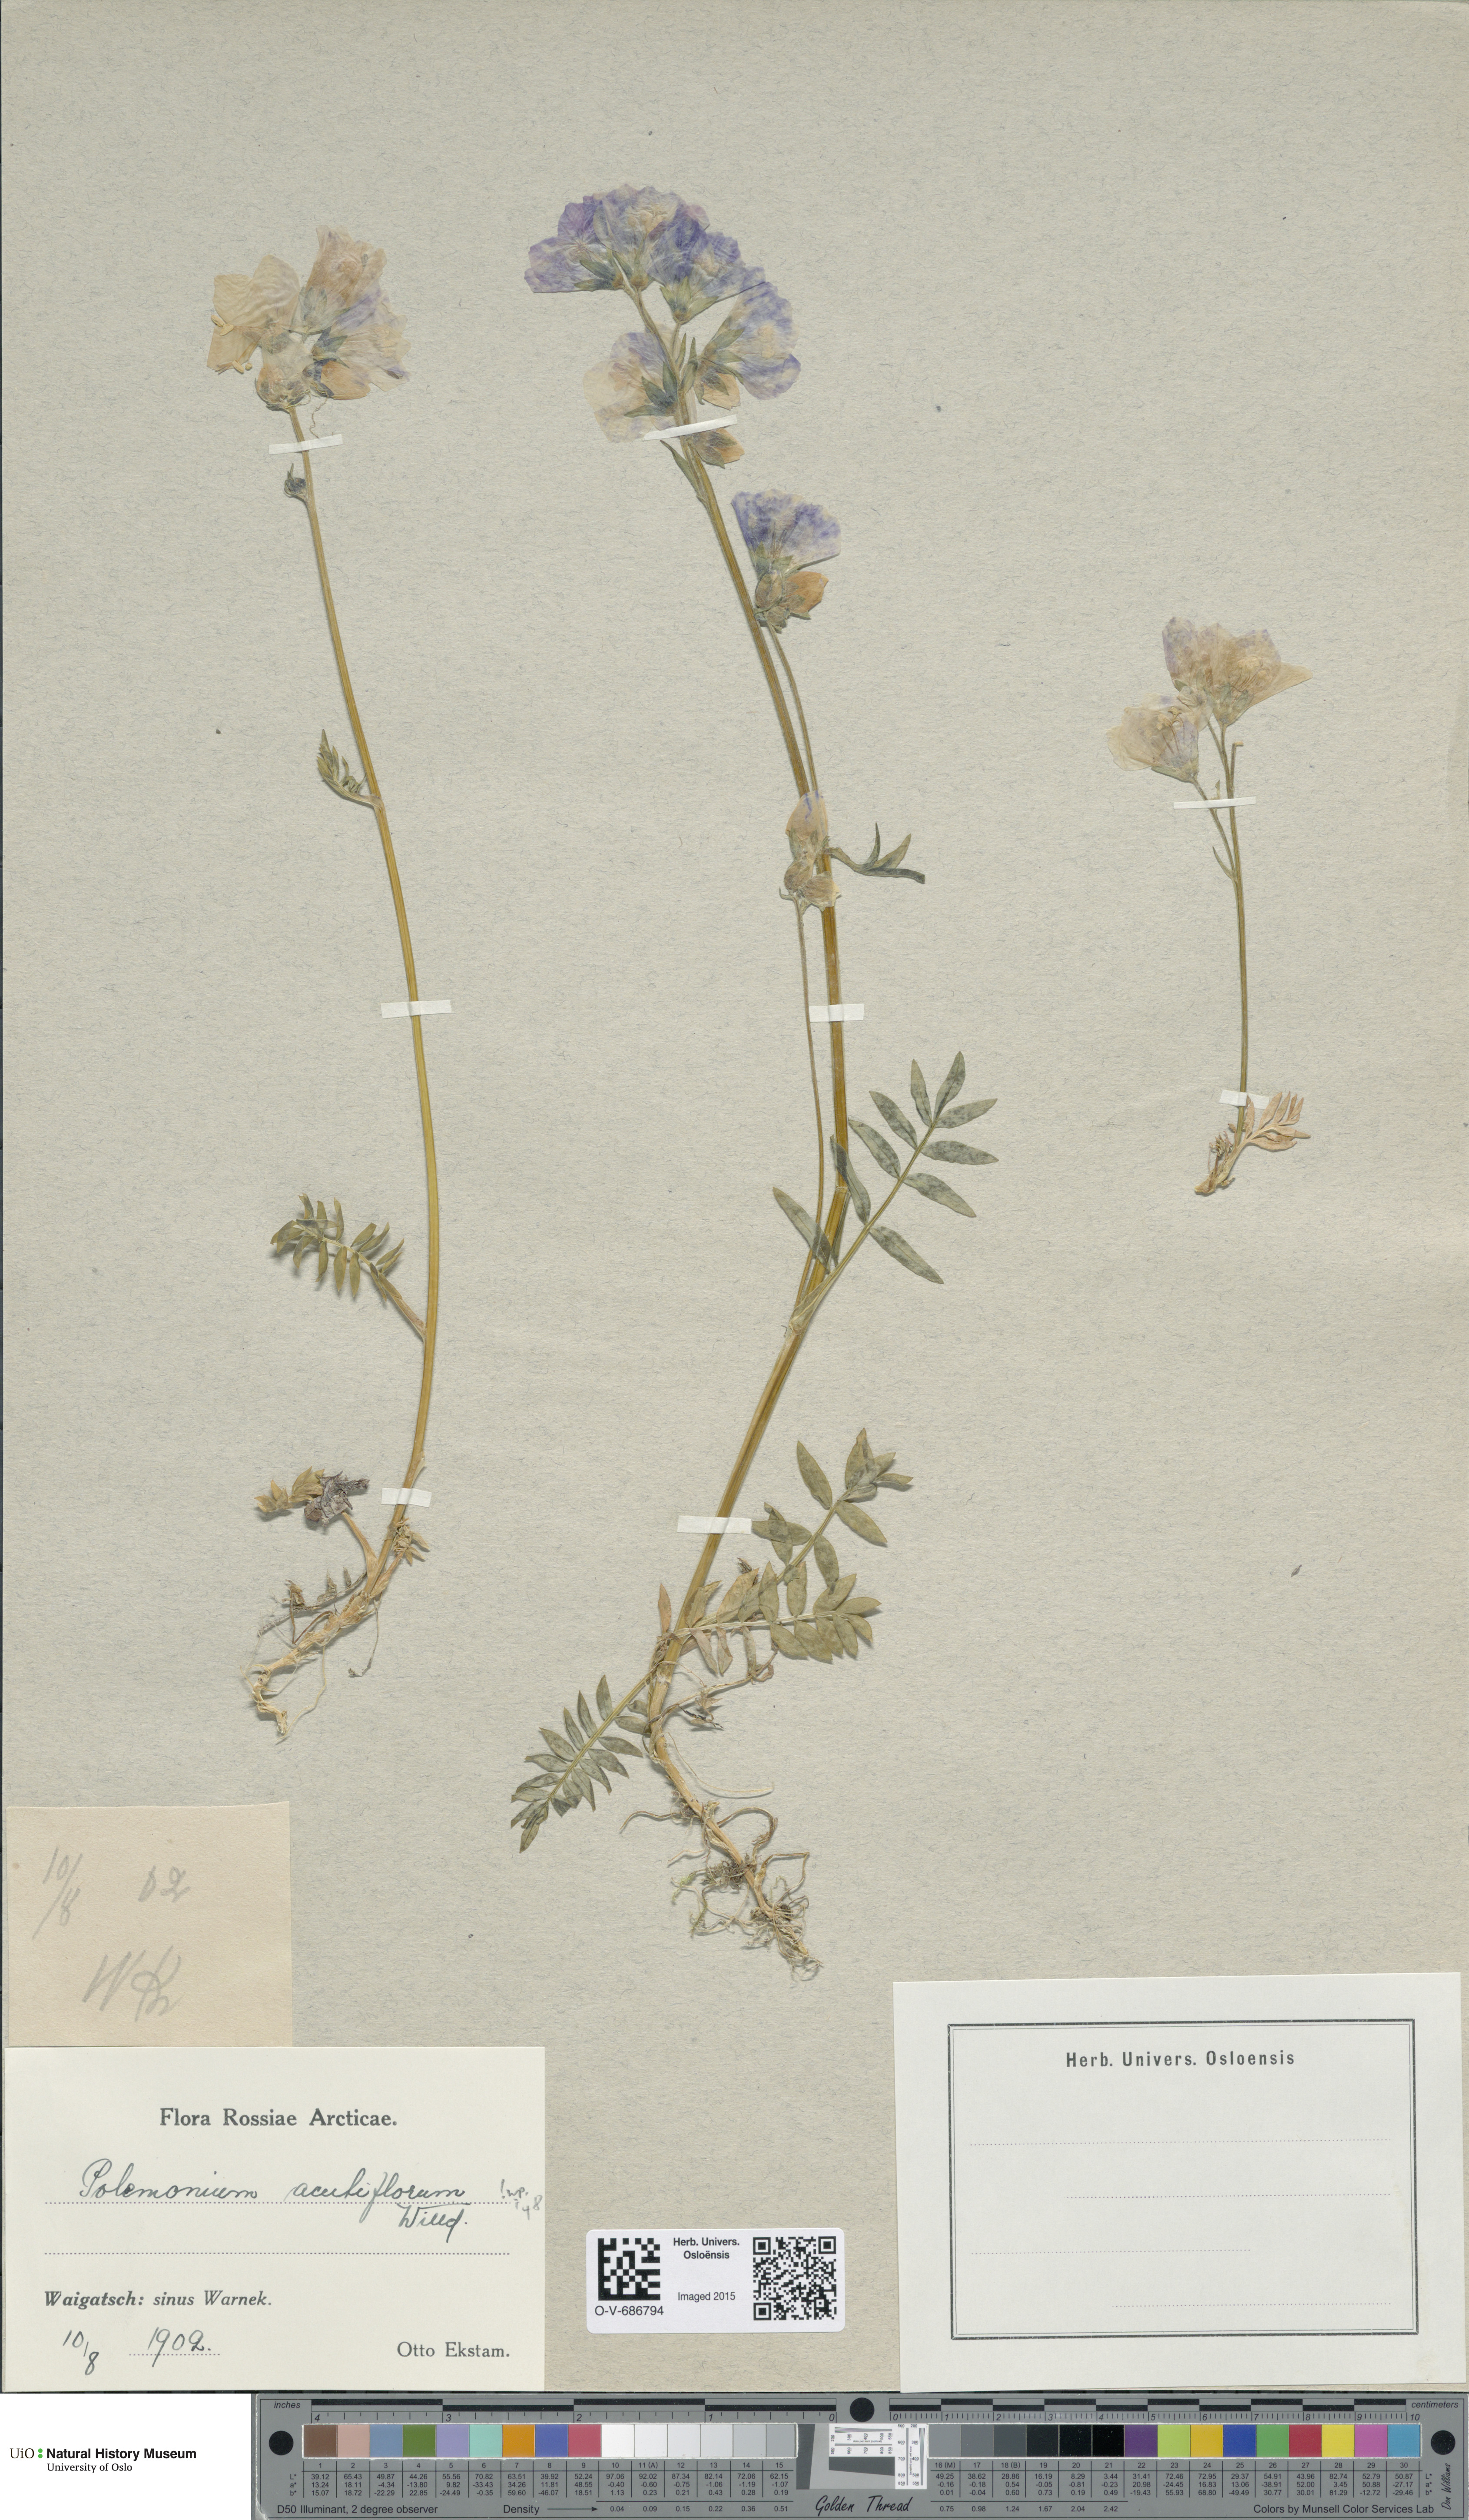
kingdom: Plantae
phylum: Tracheophyta
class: Magnoliopsida
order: Ericales
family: Polemoniaceae
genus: Polemonium
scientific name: Polemonium villosum
